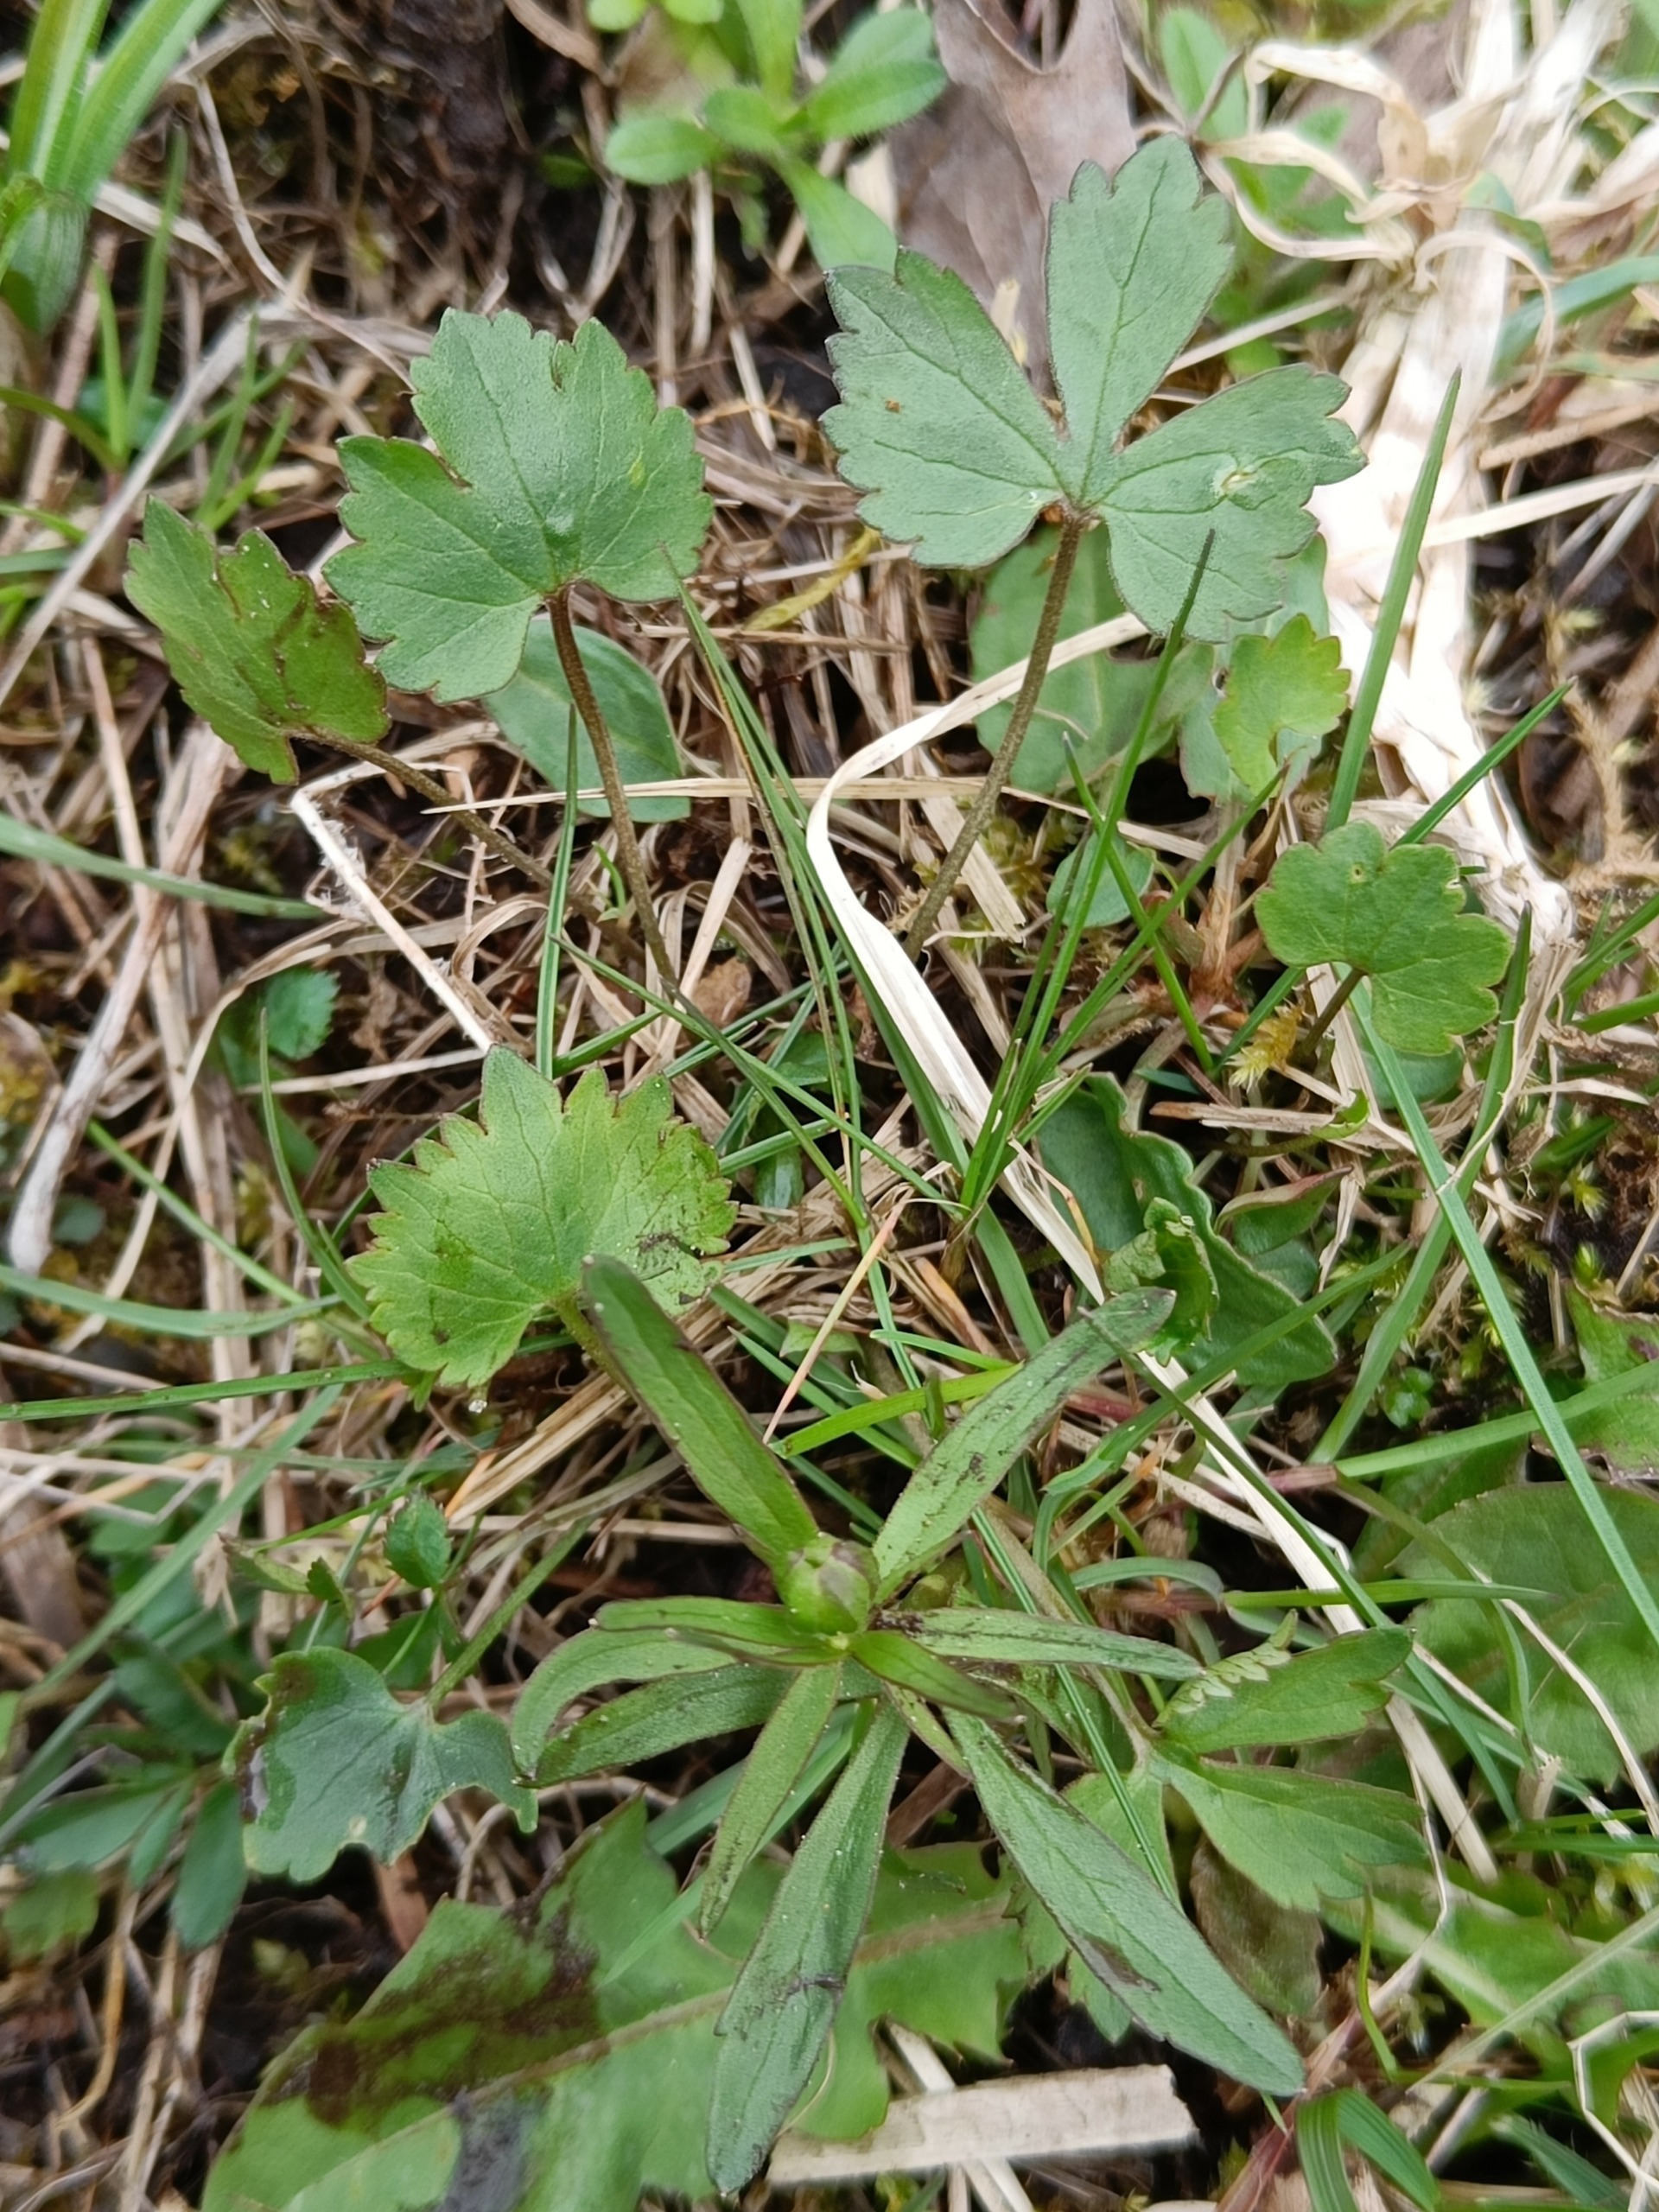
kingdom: Plantae
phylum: Tracheophyta
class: Magnoliopsida
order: Ranunculales
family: Ranunculaceae
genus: Ranunculus
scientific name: Ranunculus auricomus
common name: Nyrebladet ranunkel
